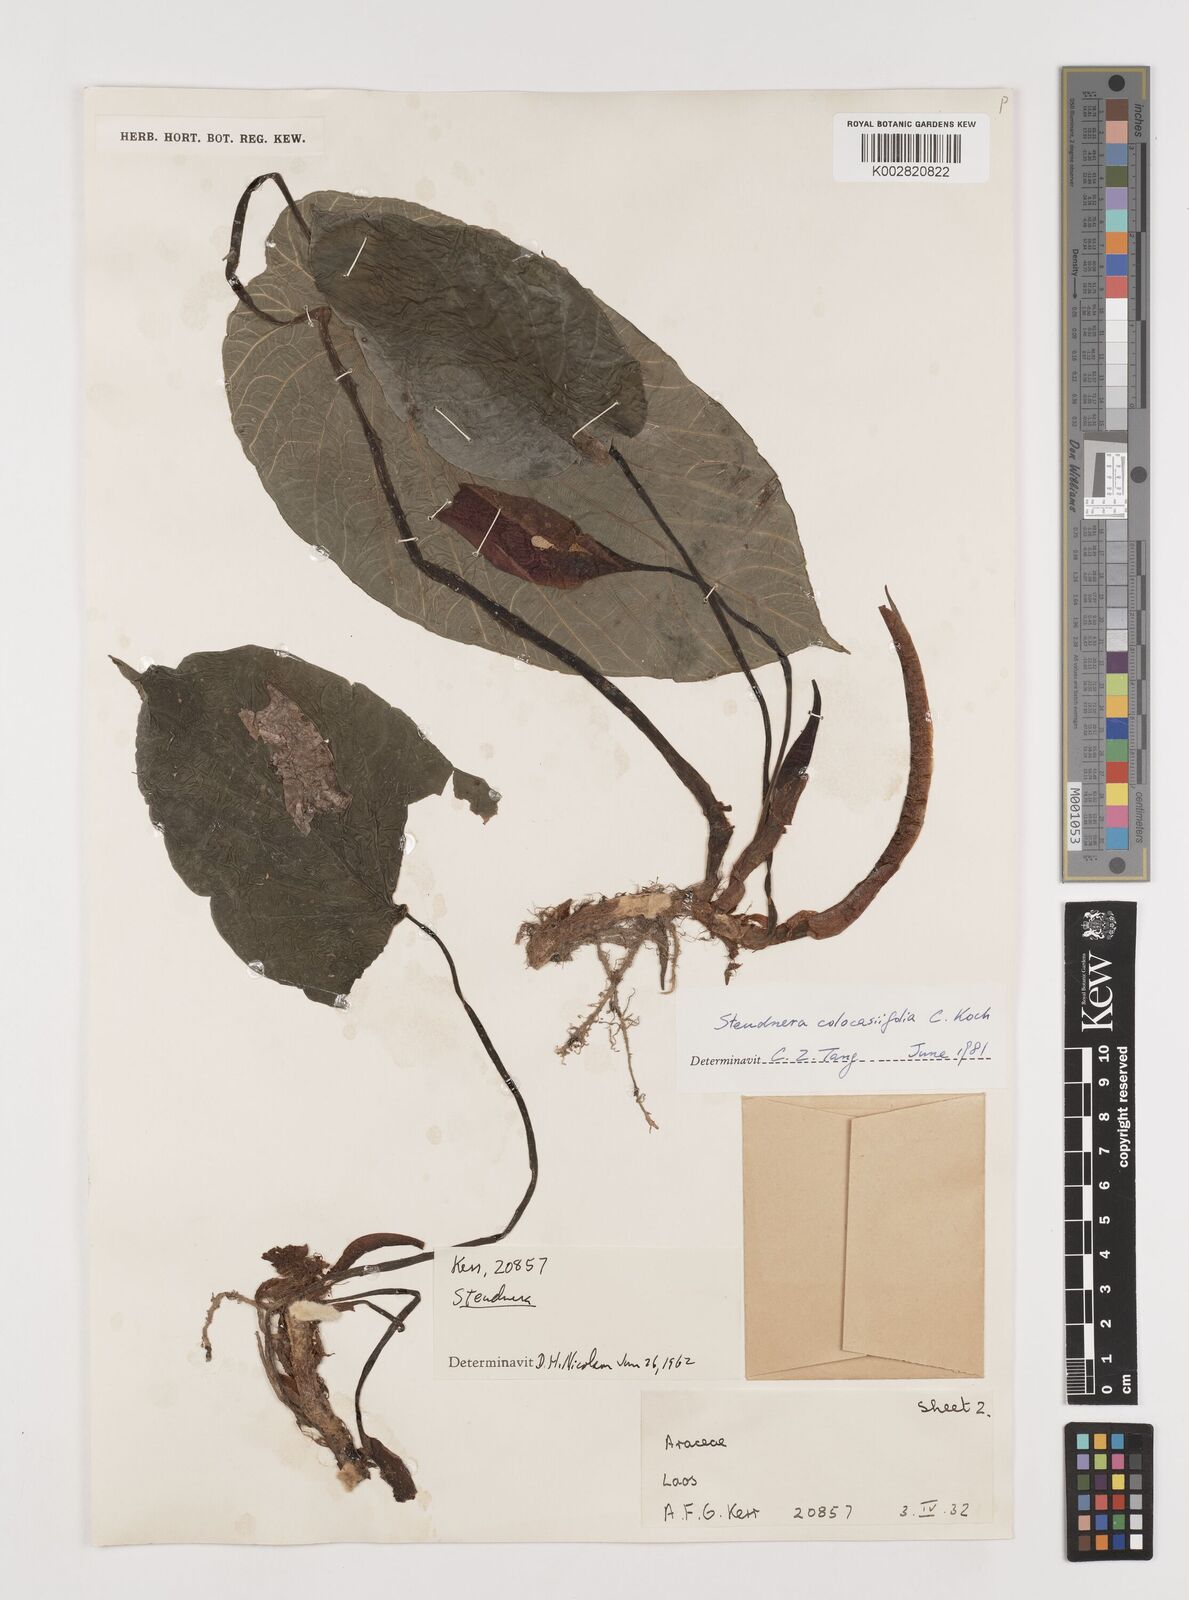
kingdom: Plantae
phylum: Tracheophyta
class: Liliopsida
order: Alismatales
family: Araceae
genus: Steudnera
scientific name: Steudnera henryana
